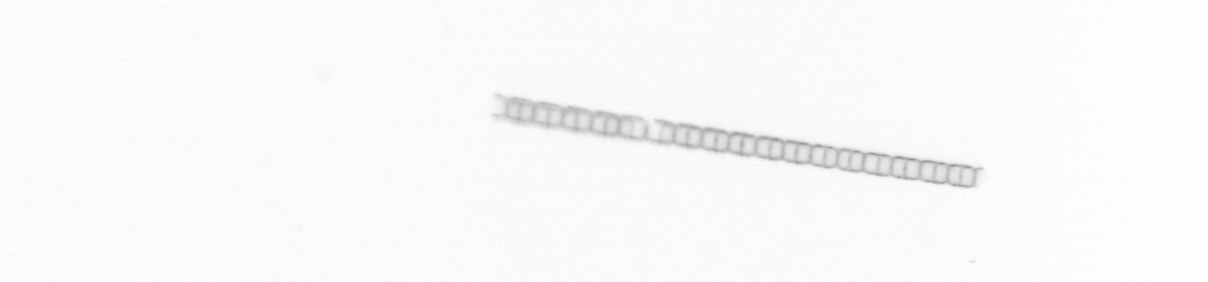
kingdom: Chromista
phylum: Ochrophyta
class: Bacillariophyceae
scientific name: Bacillariophyceae
